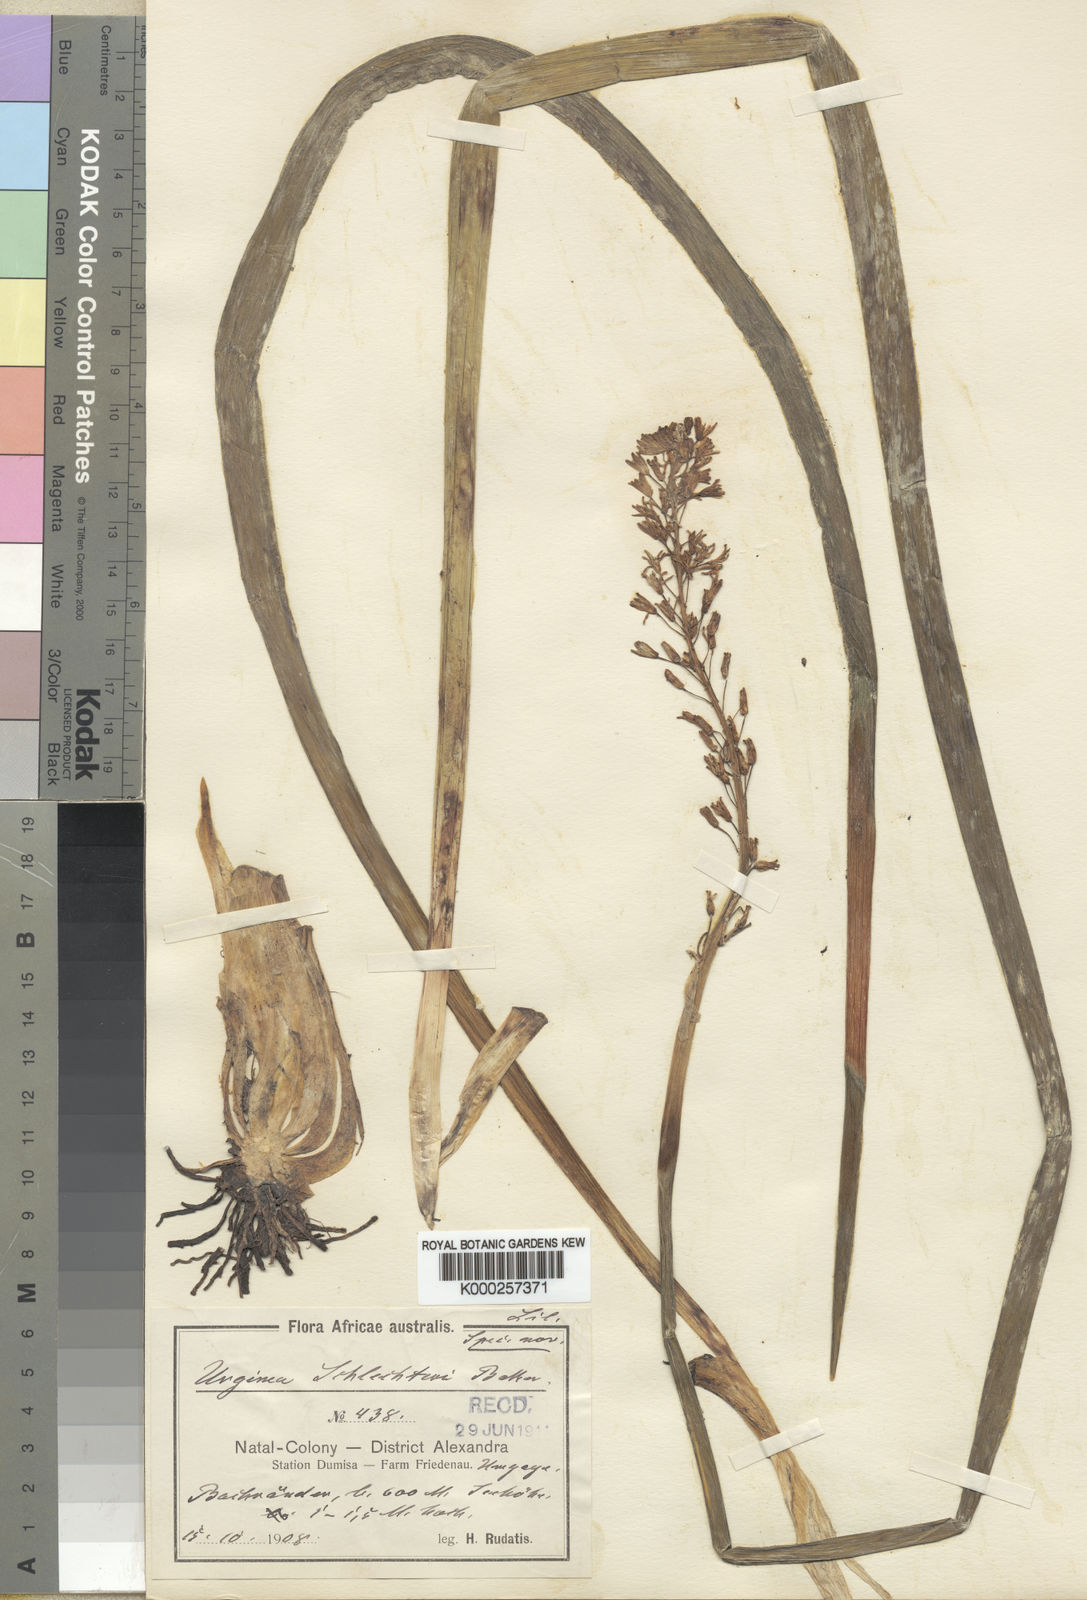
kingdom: Plantae
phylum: Tracheophyta
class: Liliopsida
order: Asparagales
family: Asparagaceae
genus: Drimia
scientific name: Drimia macrocentra
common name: Natal slangkop
